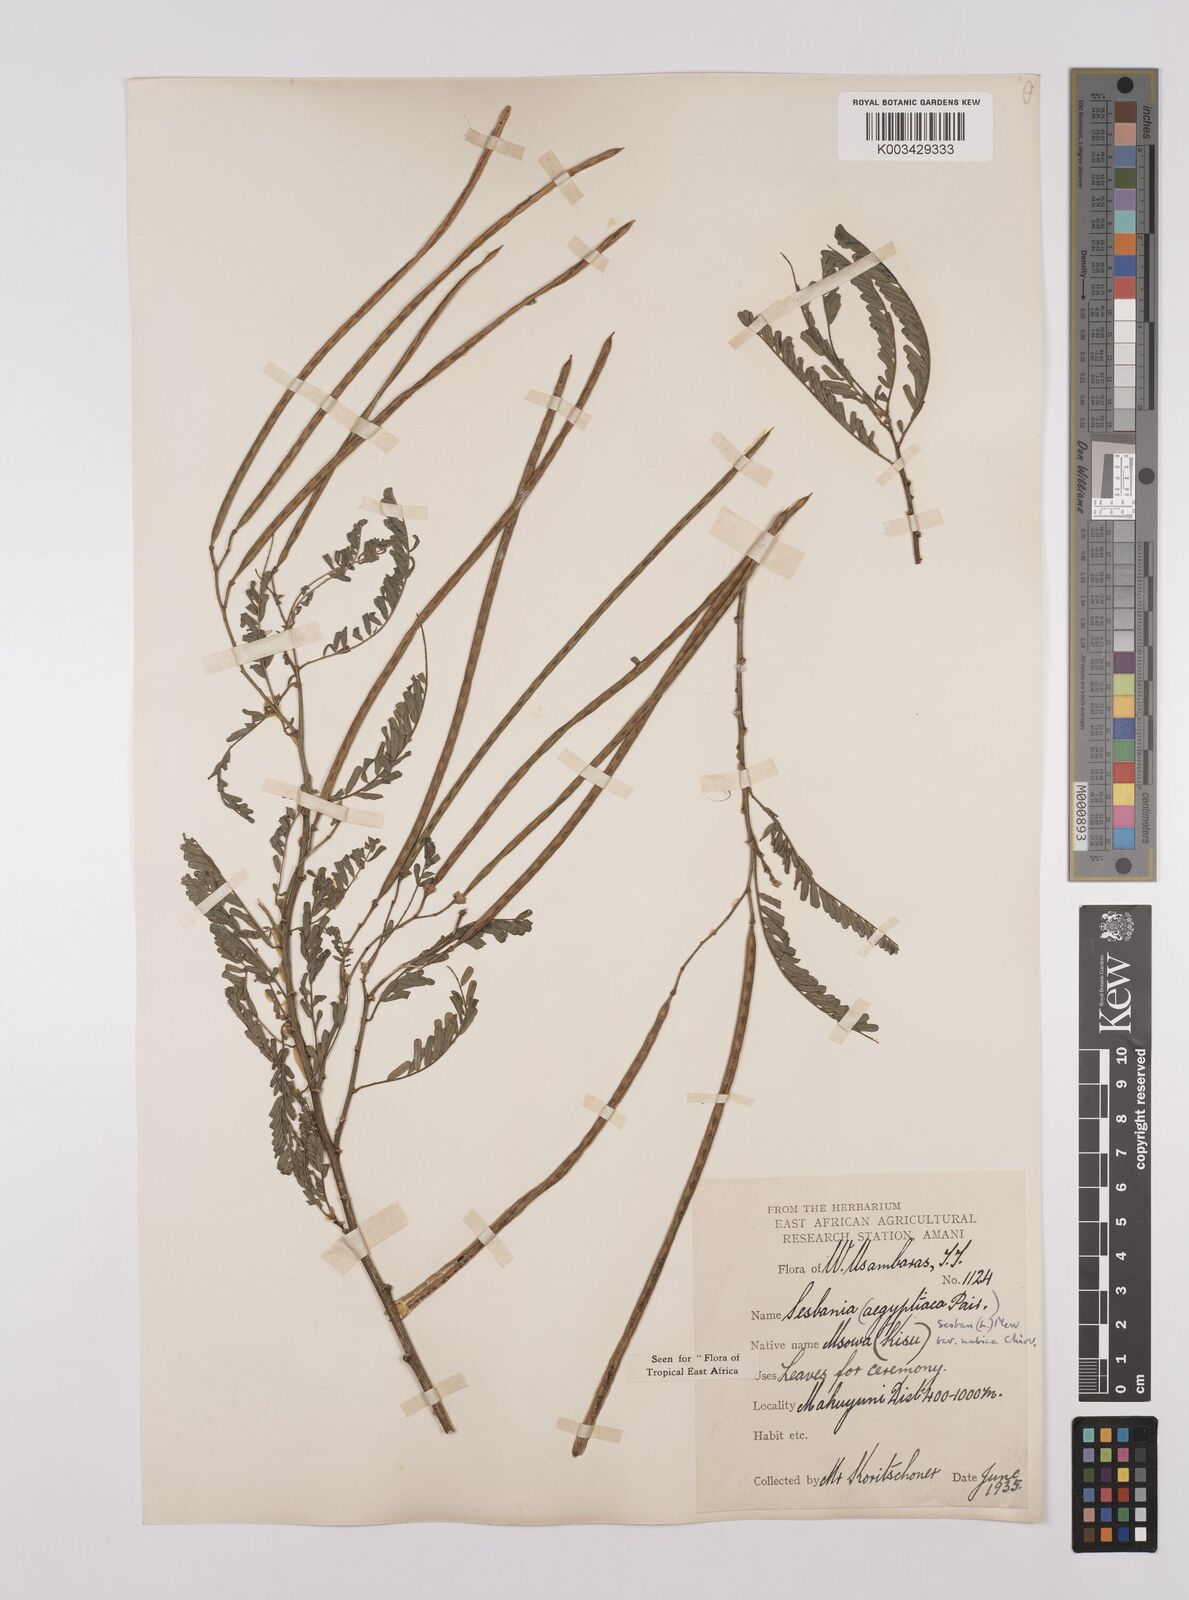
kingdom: Plantae
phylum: Tracheophyta
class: Magnoliopsida
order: Fabales
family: Fabaceae
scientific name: Fabaceae
